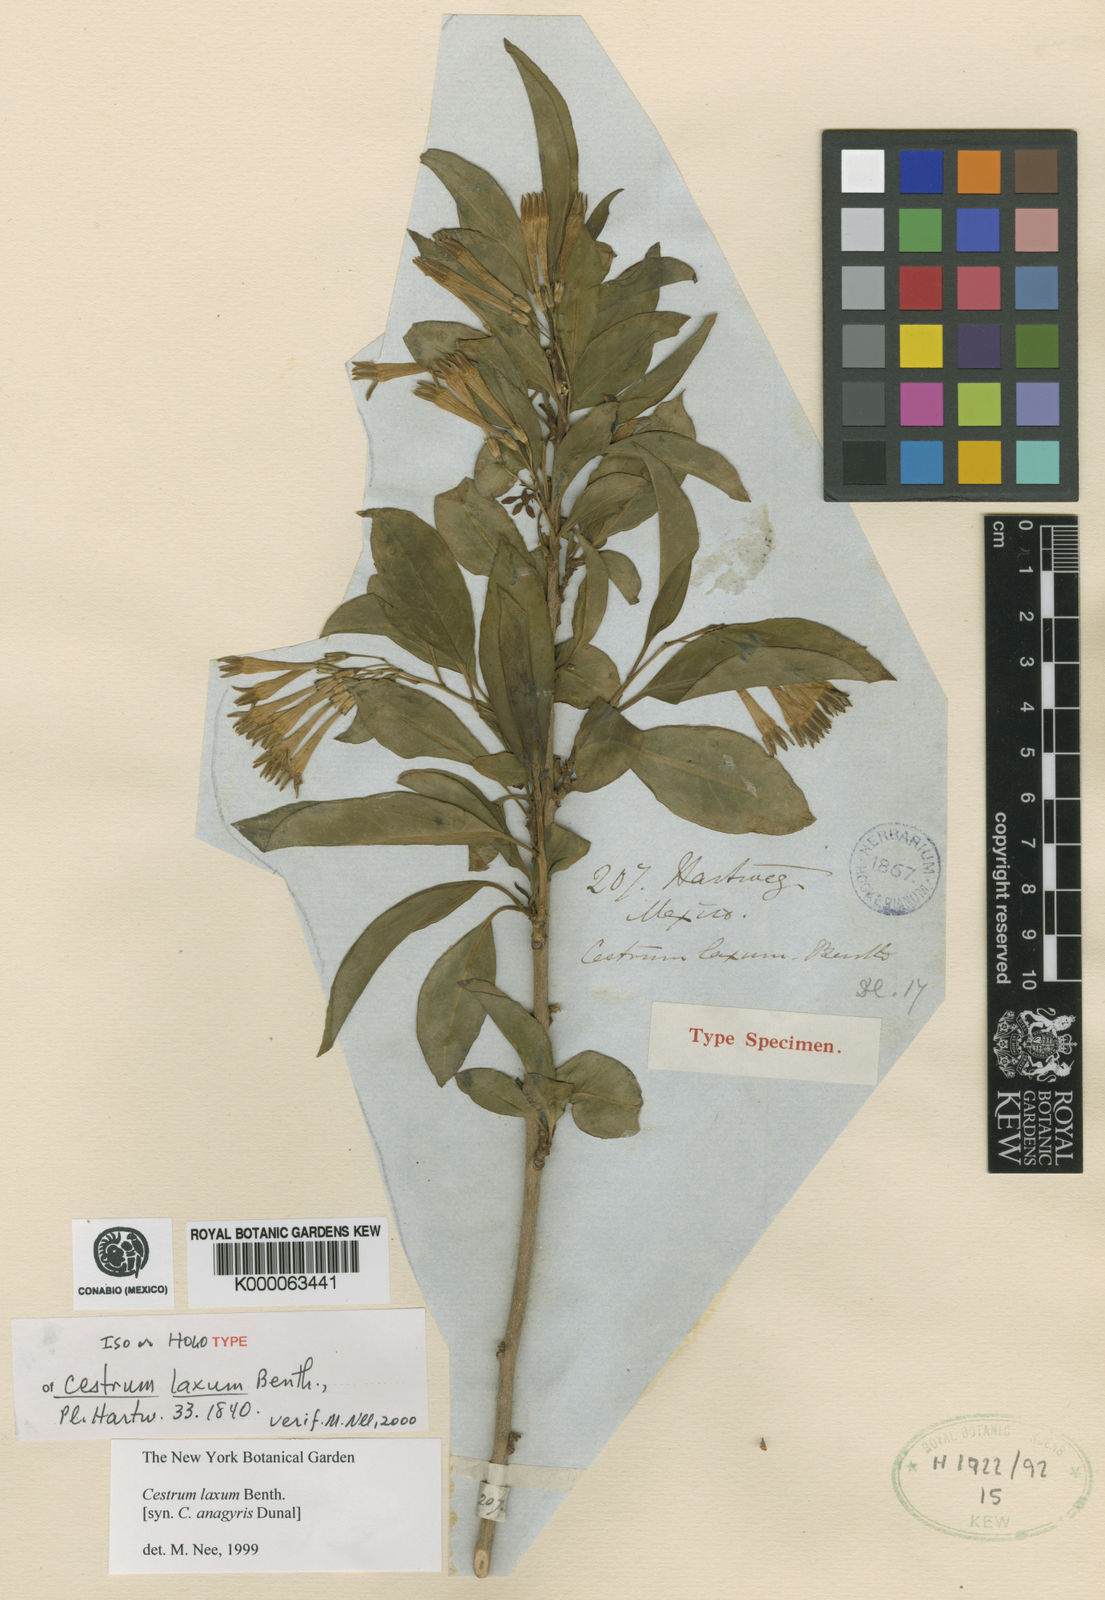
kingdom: Plantae
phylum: Tracheophyta
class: Magnoliopsida
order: Solanales
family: Solanaceae
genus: Cestrum
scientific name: Cestrum laxum
